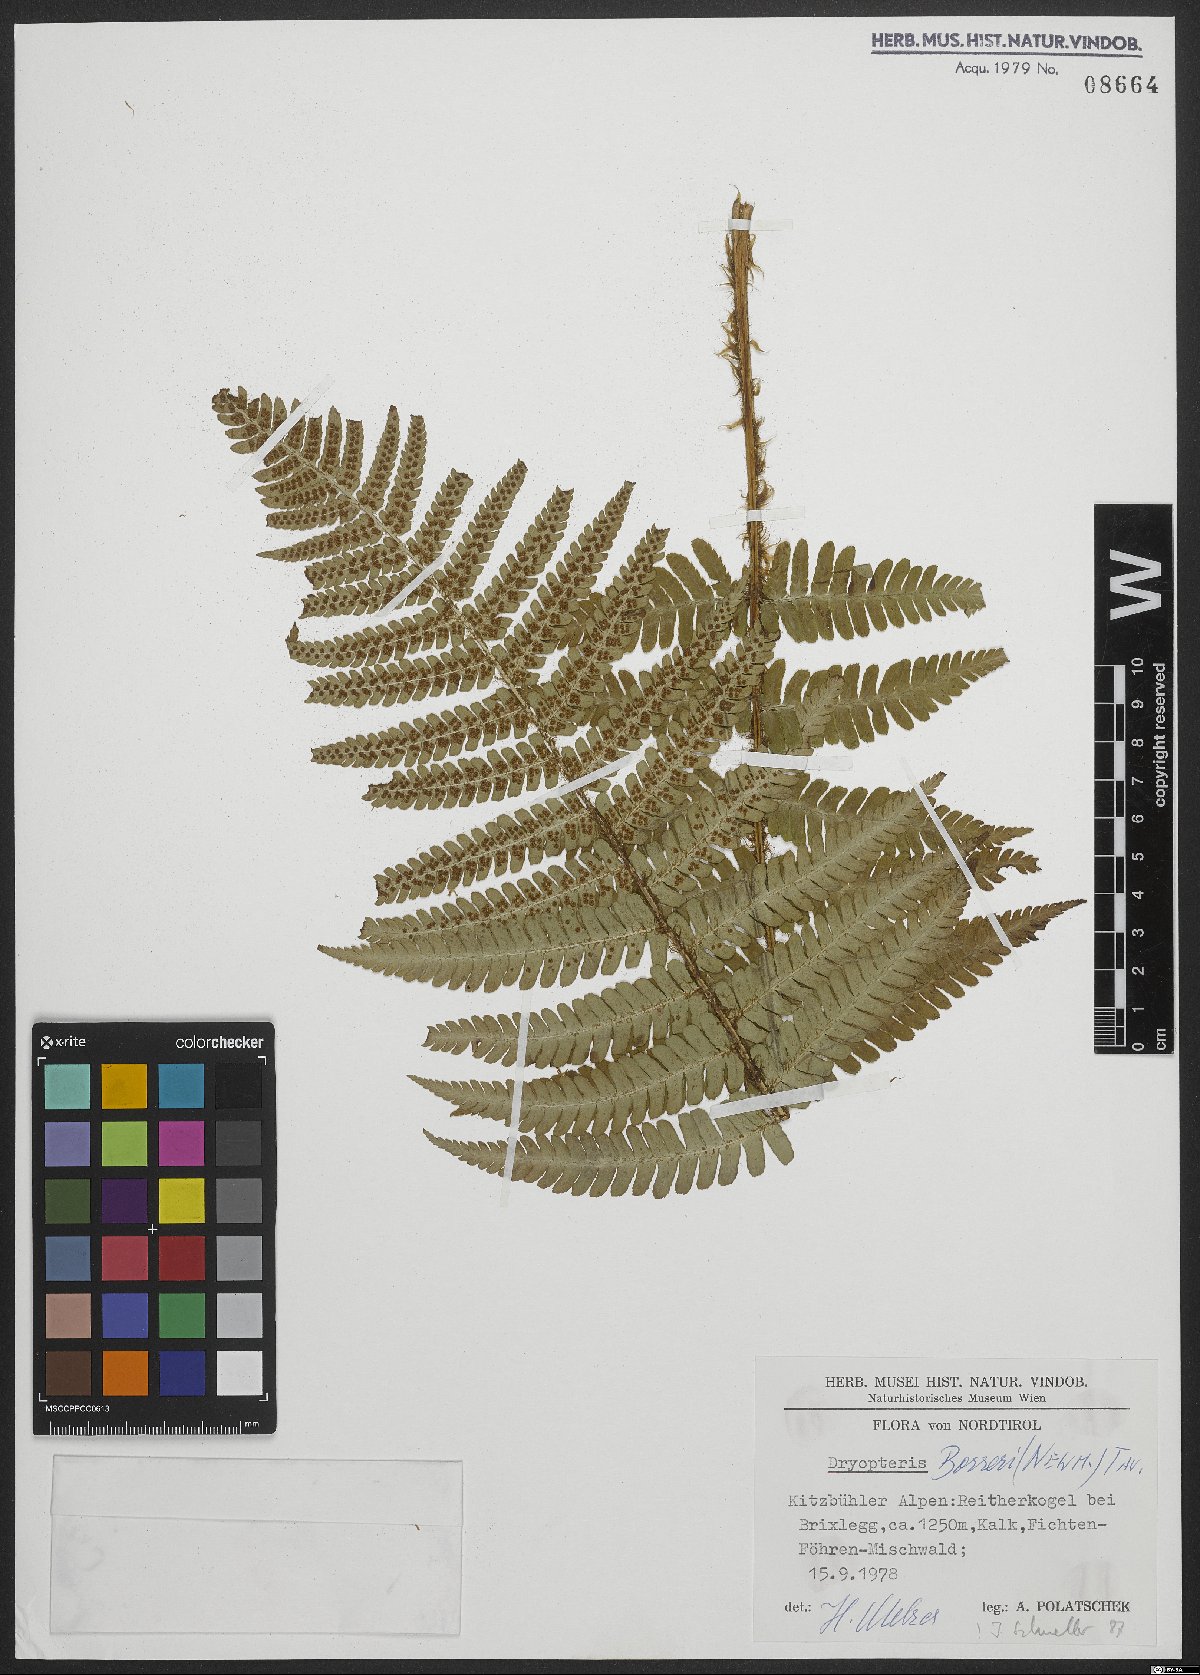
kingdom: Plantae
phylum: Tracheophyta
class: Polypodiopsida
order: Polypodiales
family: Dryopteridaceae
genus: Dryopteris
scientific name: Dryopteris borreri
